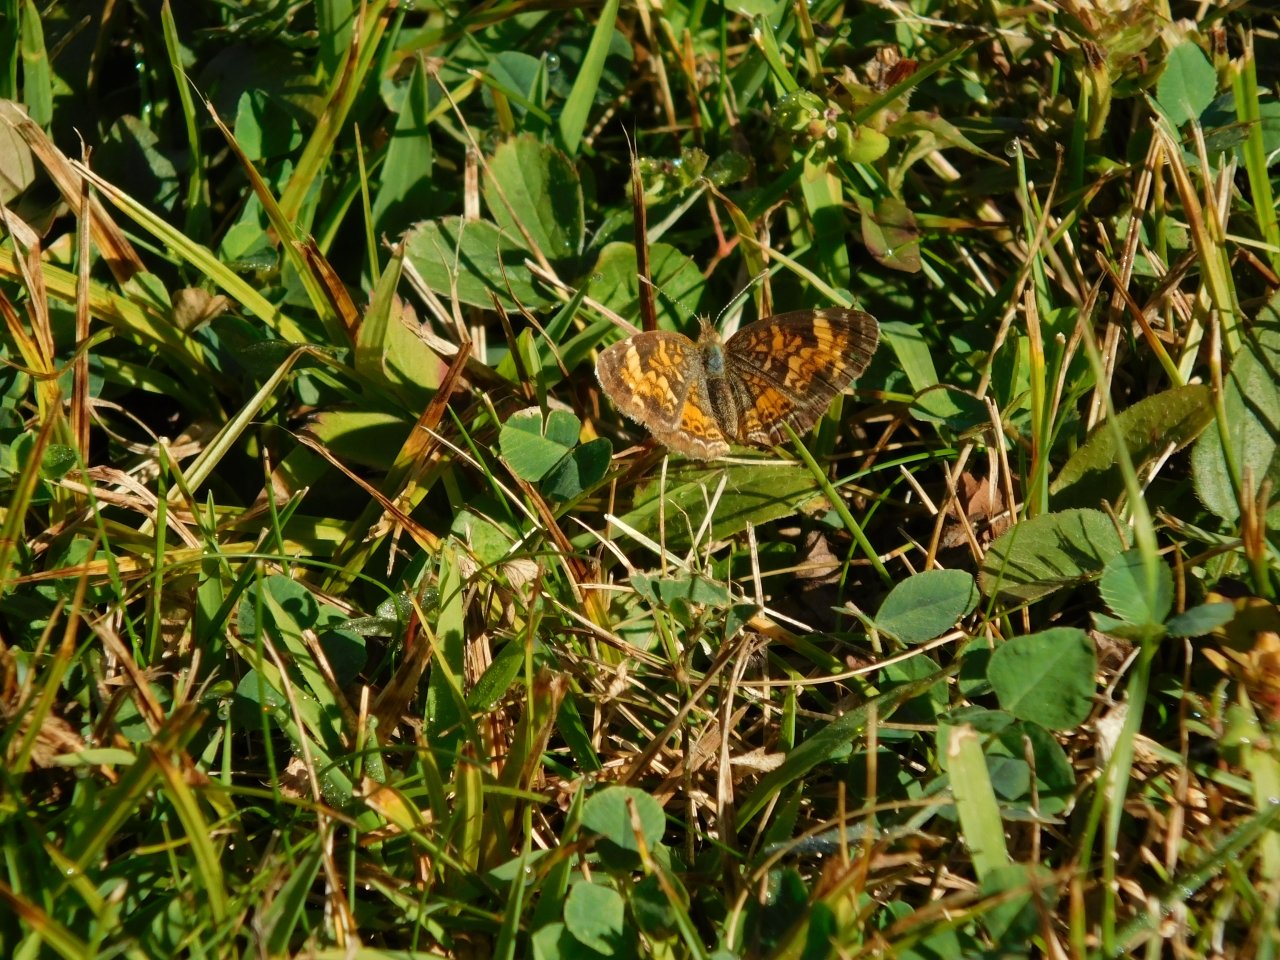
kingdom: Animalia
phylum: Arthropoda
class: Insecta
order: Lepidoptera
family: Nymphalidae
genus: Phyciodes
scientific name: Phyciodes tharos
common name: Pearl Crescent
